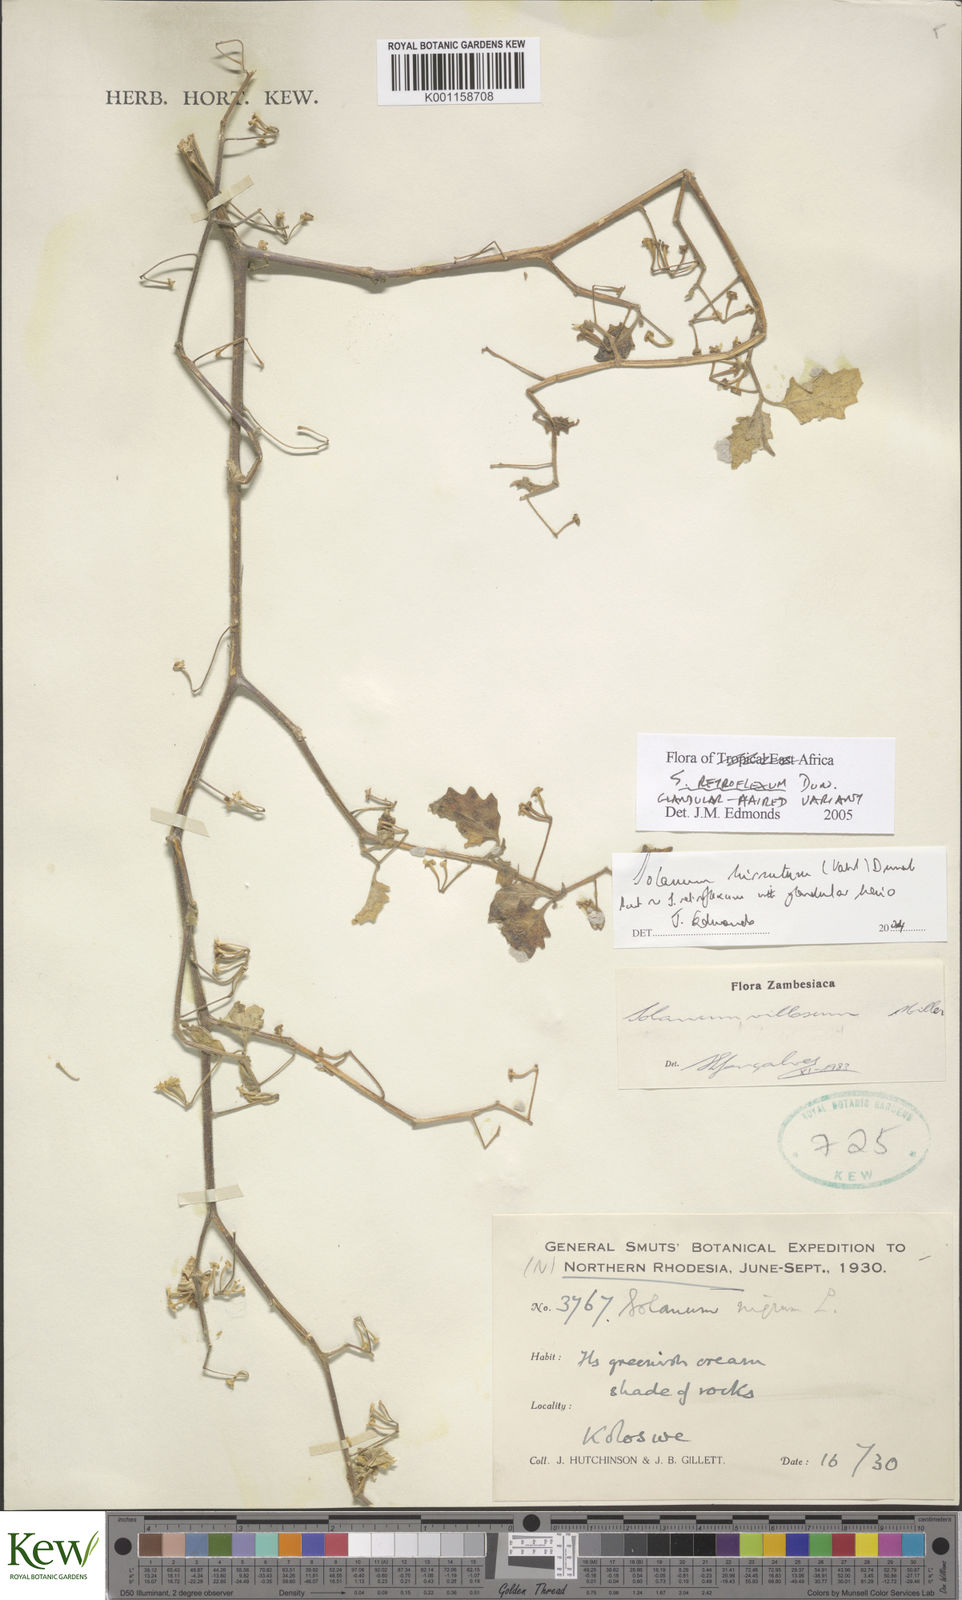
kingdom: Plantae
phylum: Tracheophyta
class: Magnoliopsida
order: Solanales
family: Solanaceae
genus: Solanum
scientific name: Solanum
